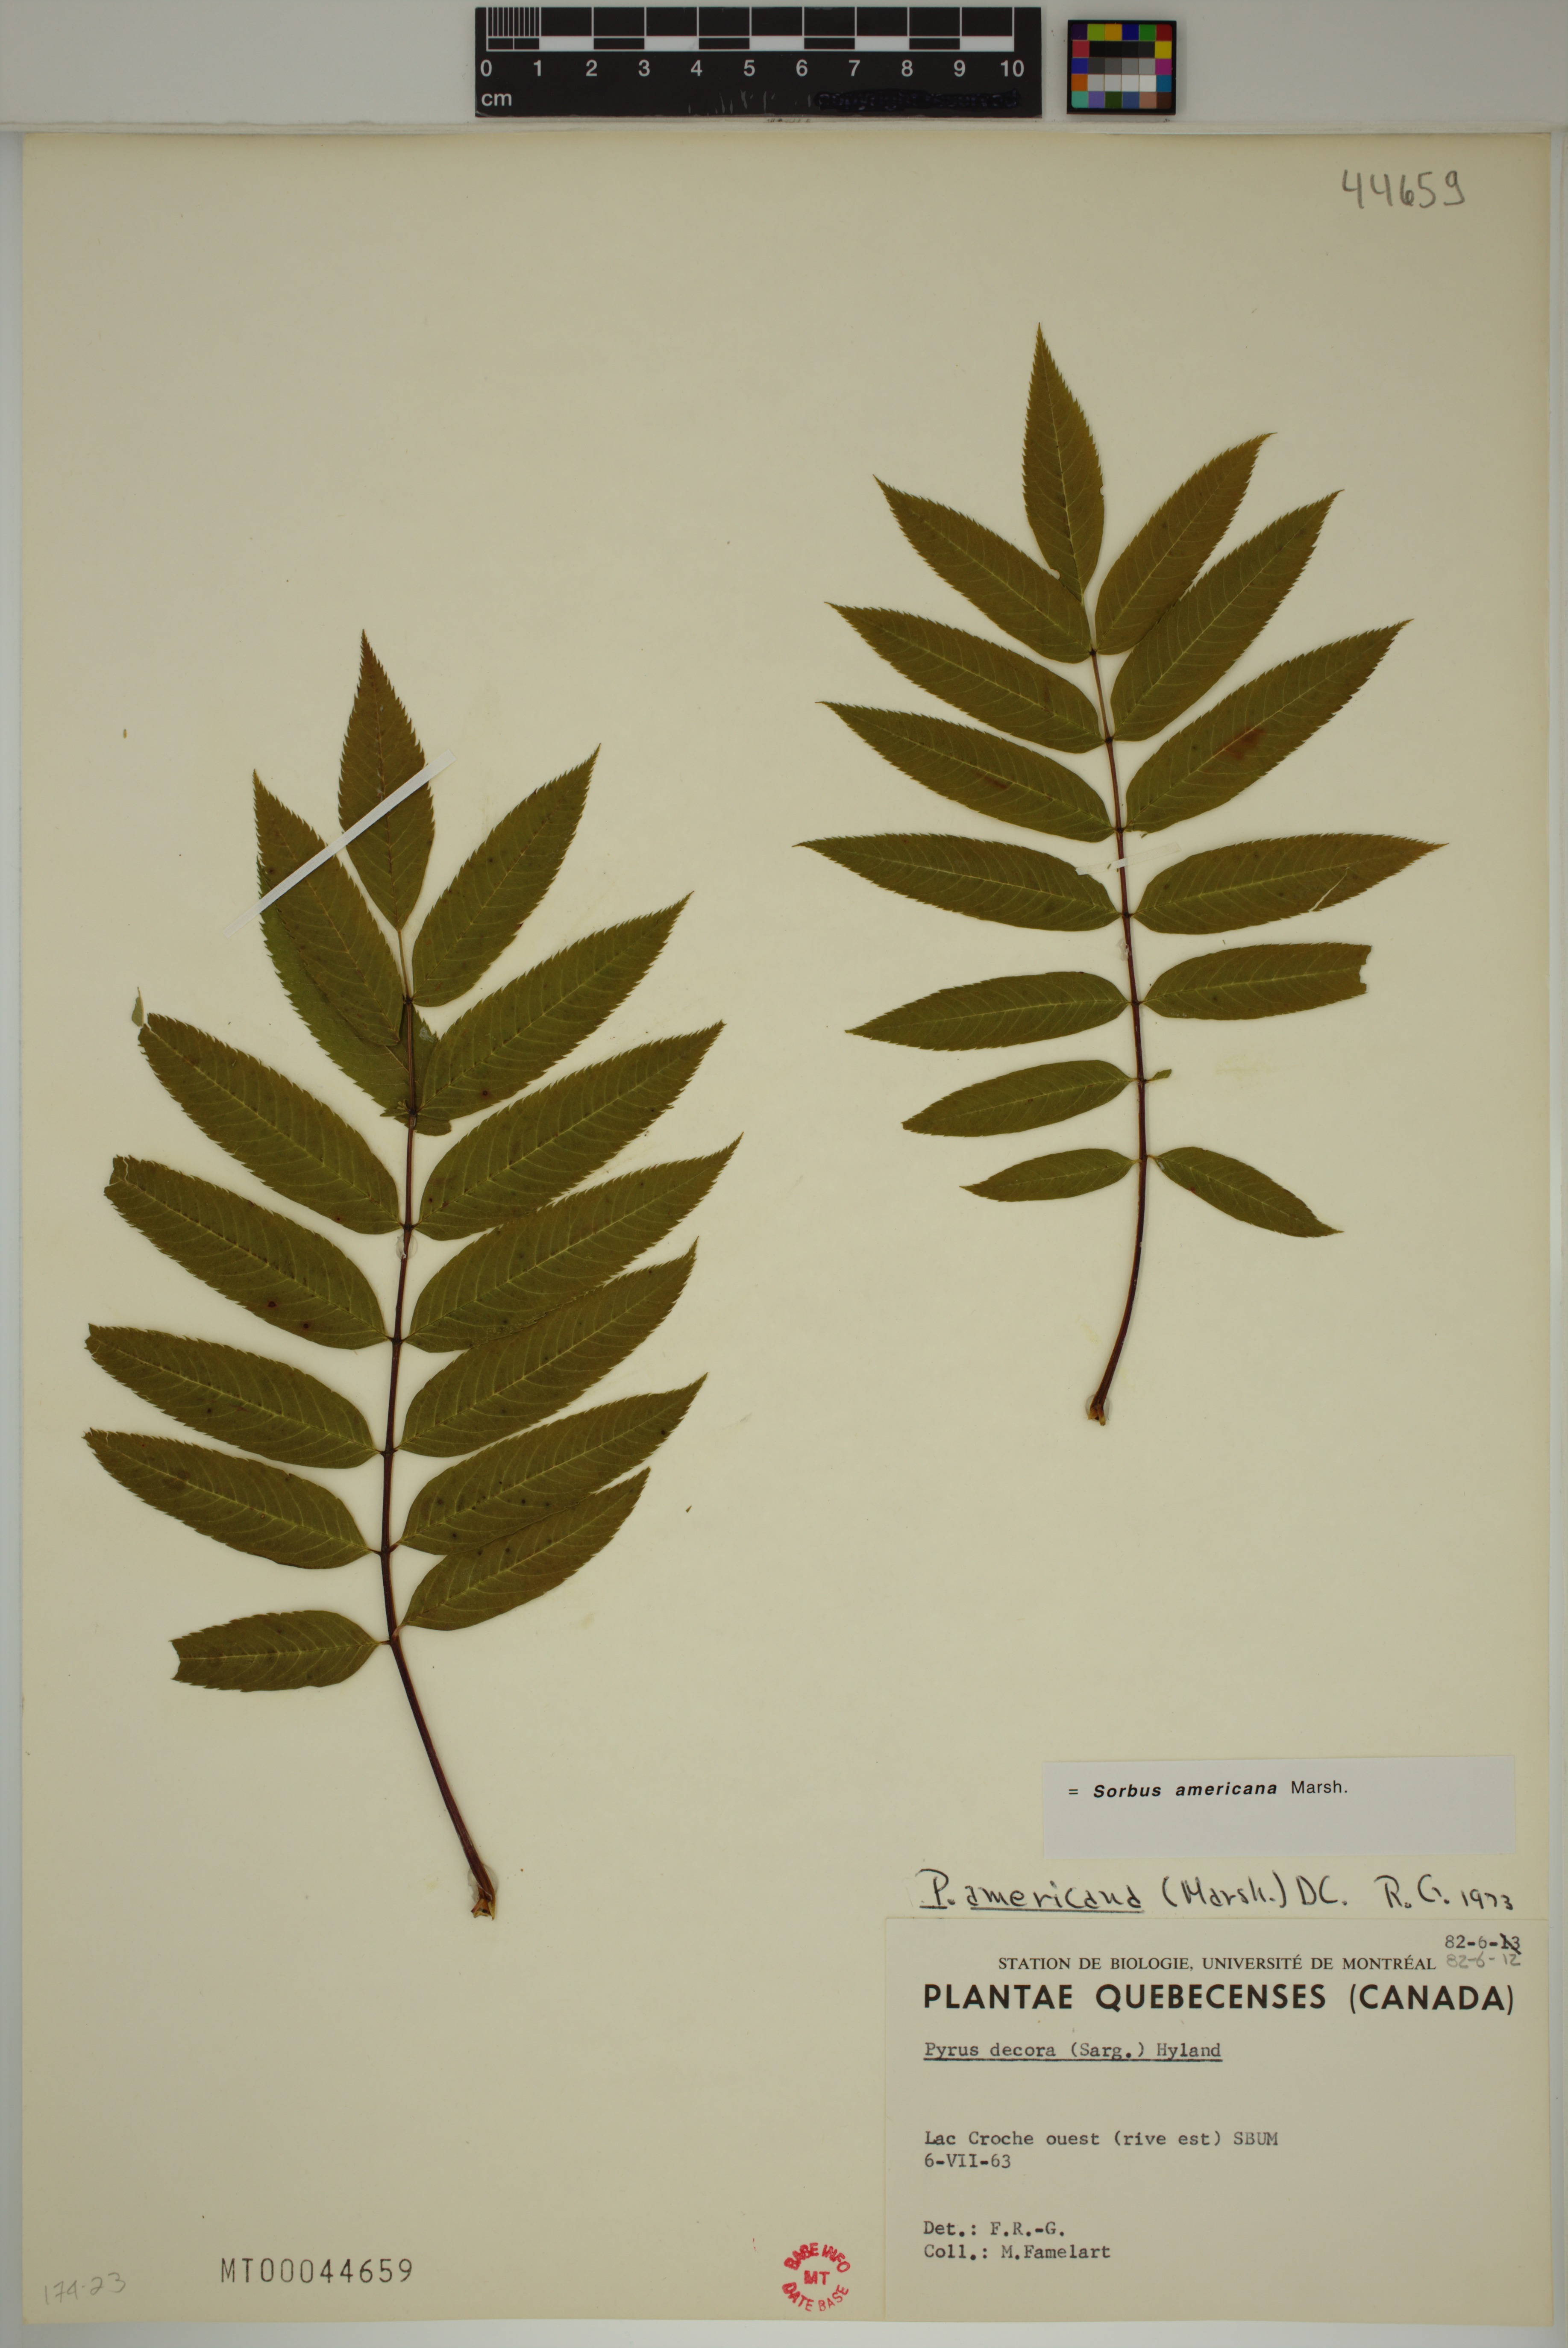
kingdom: Plantae
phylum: Tracheophyta
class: Magnoliopsida
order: Rosales
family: Rosaceae
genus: Sorbus
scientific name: Sorbus americana
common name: American mountain-ash
